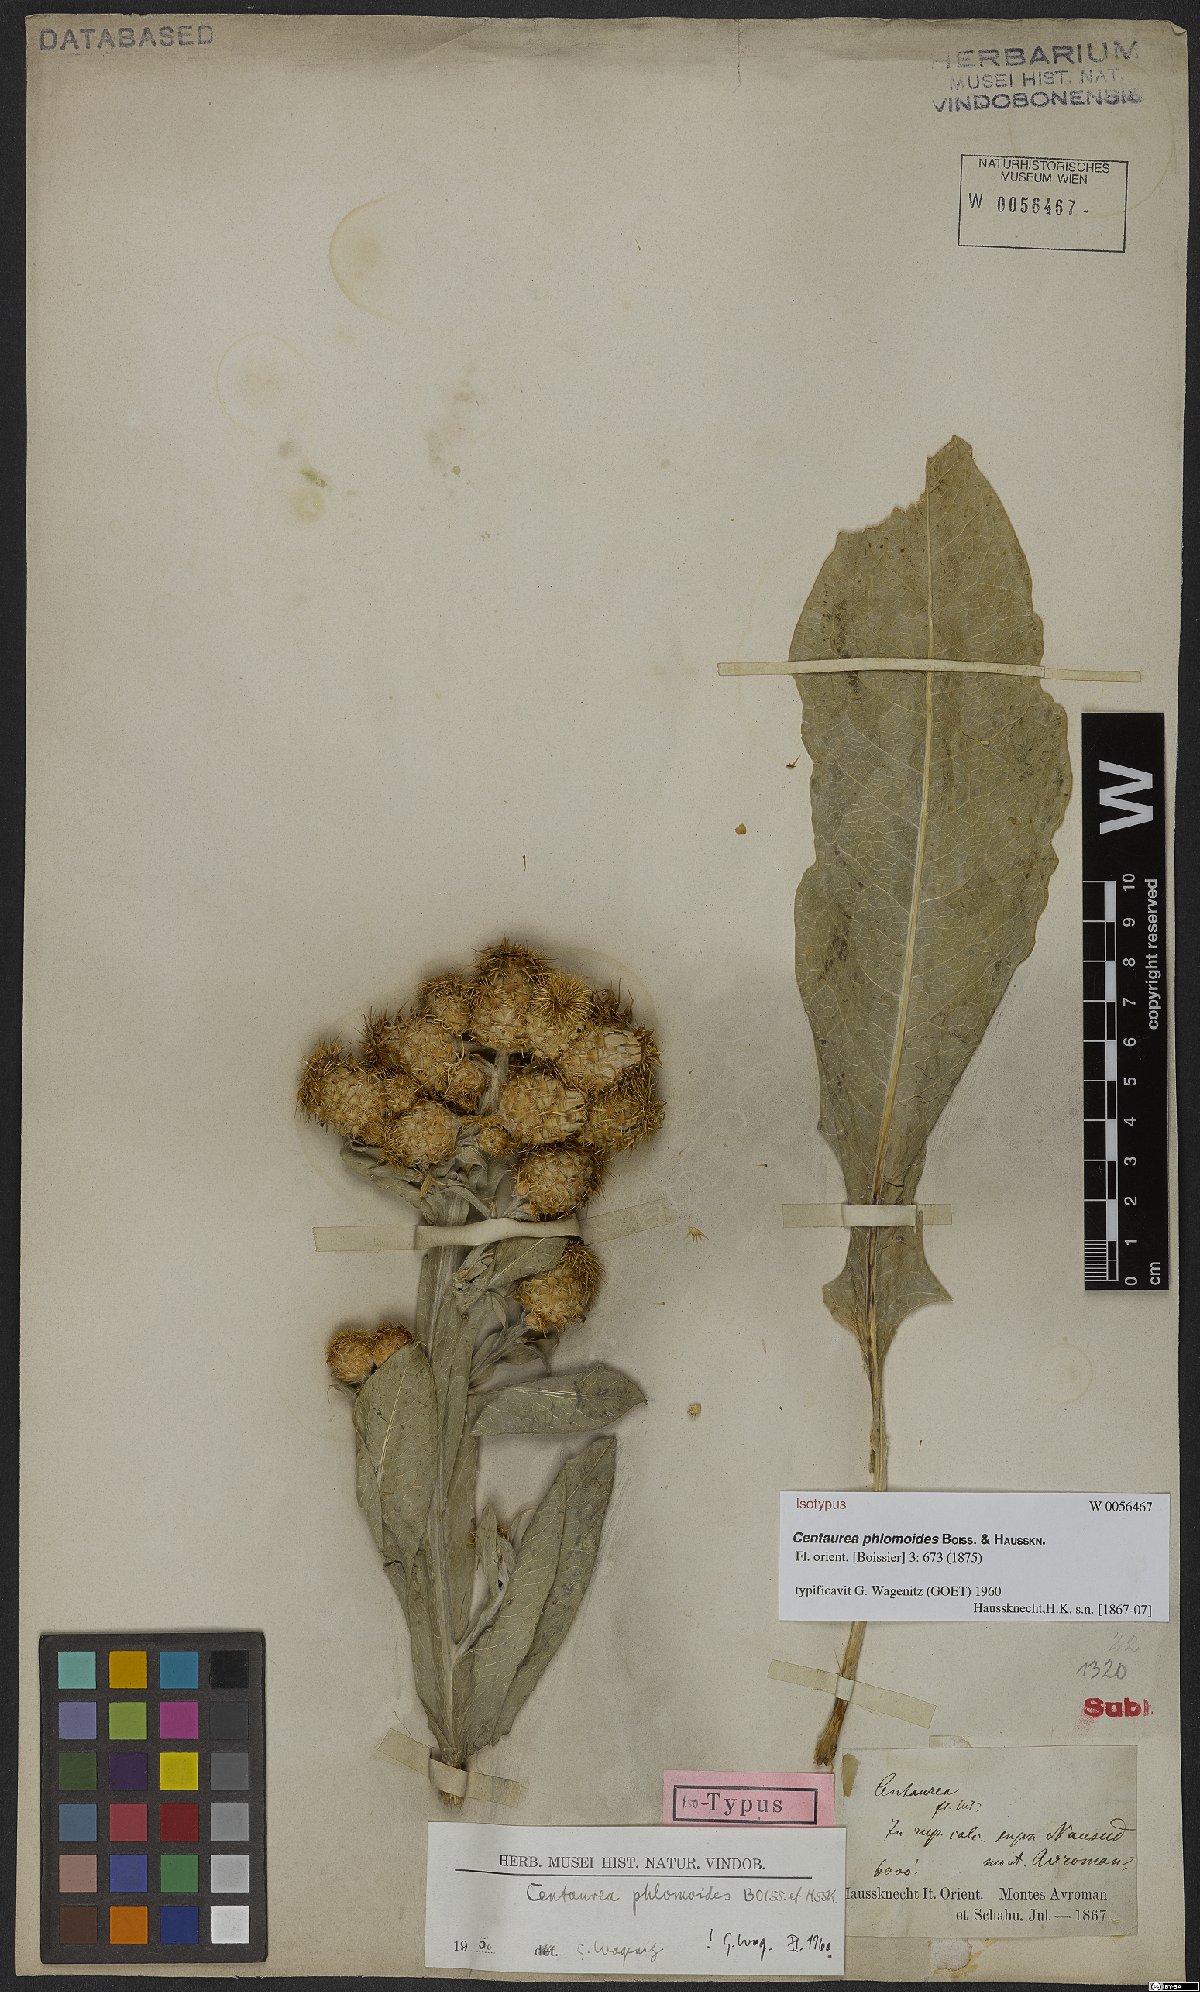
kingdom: Plantae
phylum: Tracheophyta
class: Magnoliopsida
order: Asterales
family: Asteraceae
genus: Centaurea
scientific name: Centaurea phlomoides
